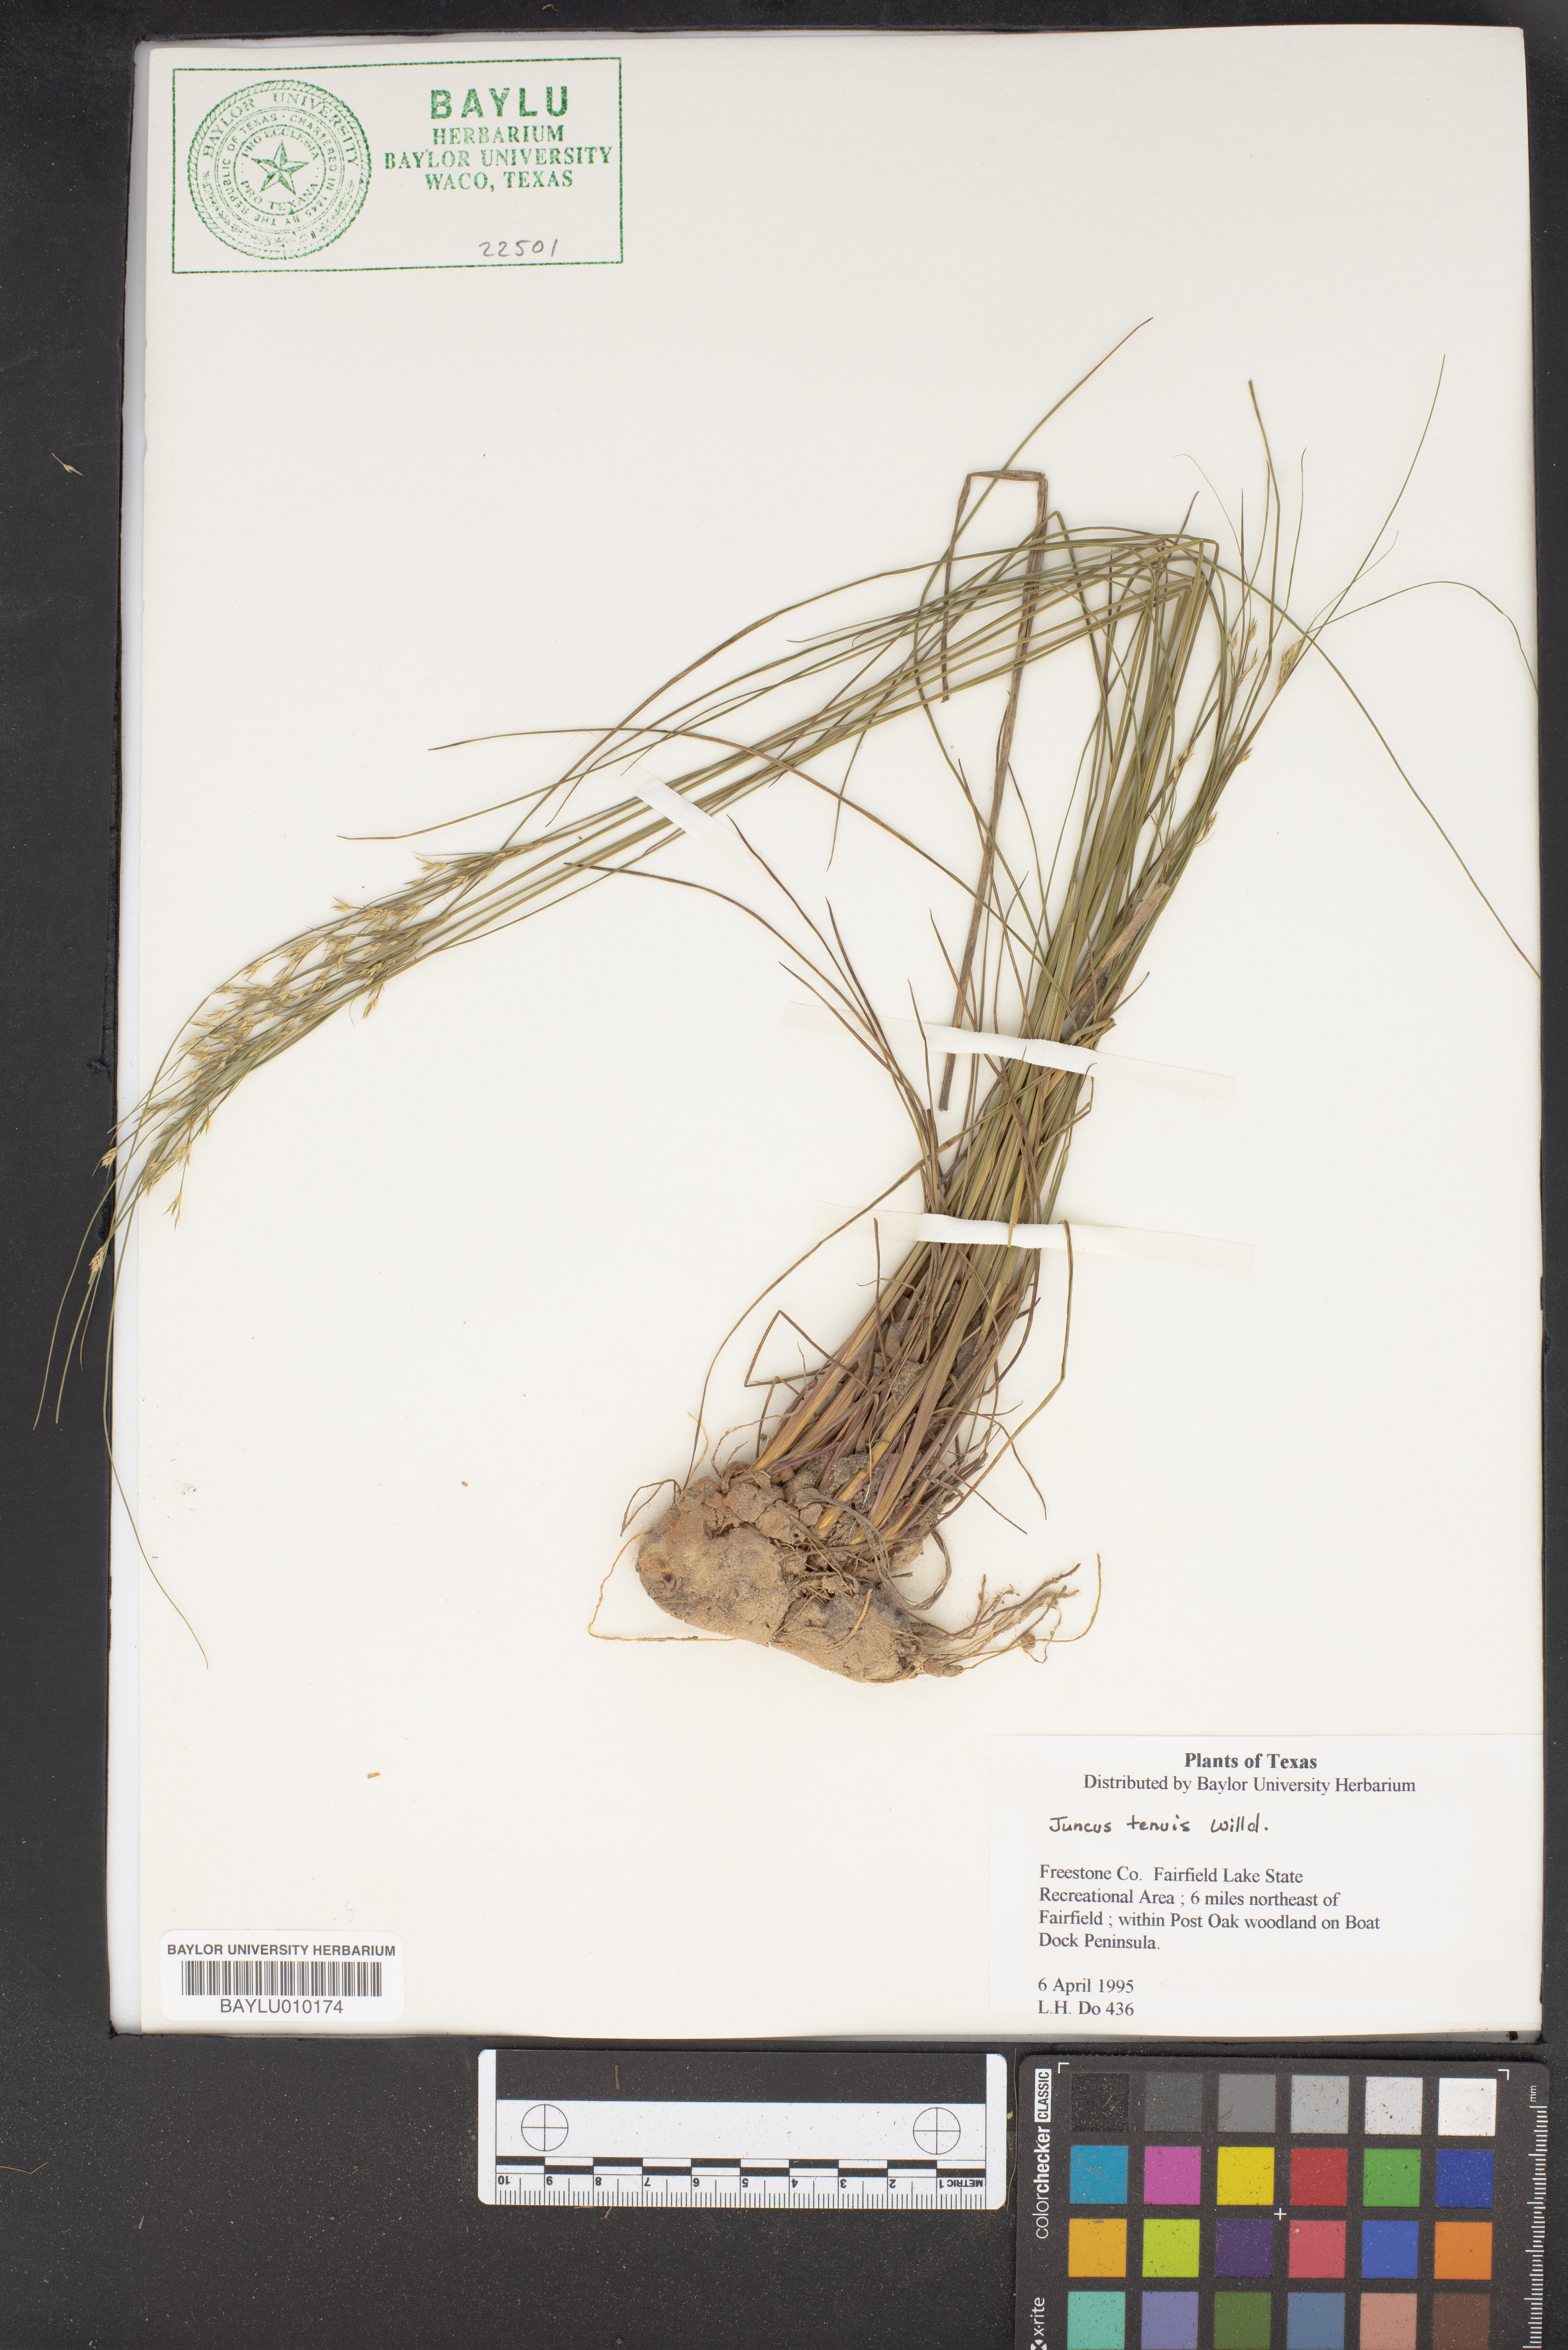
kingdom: Plantae
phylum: Tracheophyta
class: Liliopsida
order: Poales
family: Juncaceae
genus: Juncus
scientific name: Juncus tenuis
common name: Slender rush
